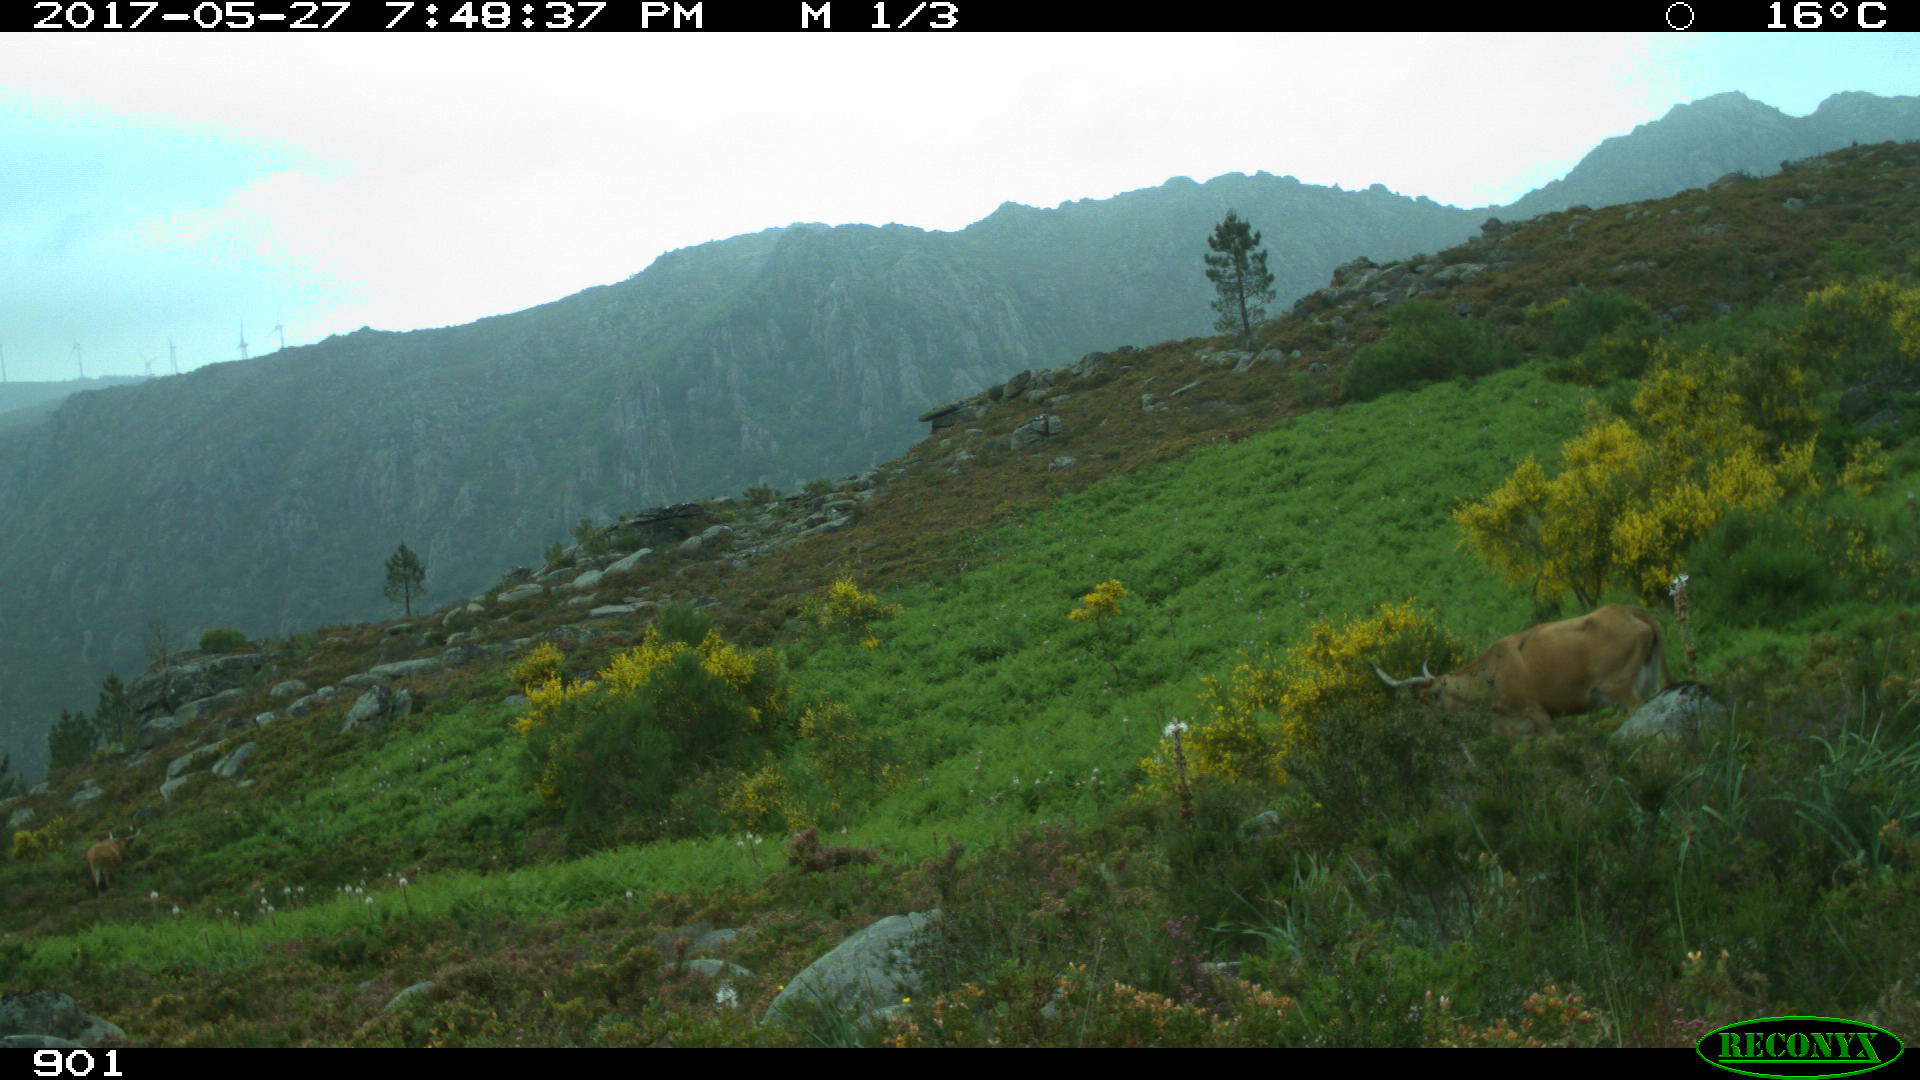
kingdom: Animalia
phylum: Chordata
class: Mammalia
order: Artiodactyla
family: Bovidae
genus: Bos
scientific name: Bos taurus
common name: Domesticated cattle
